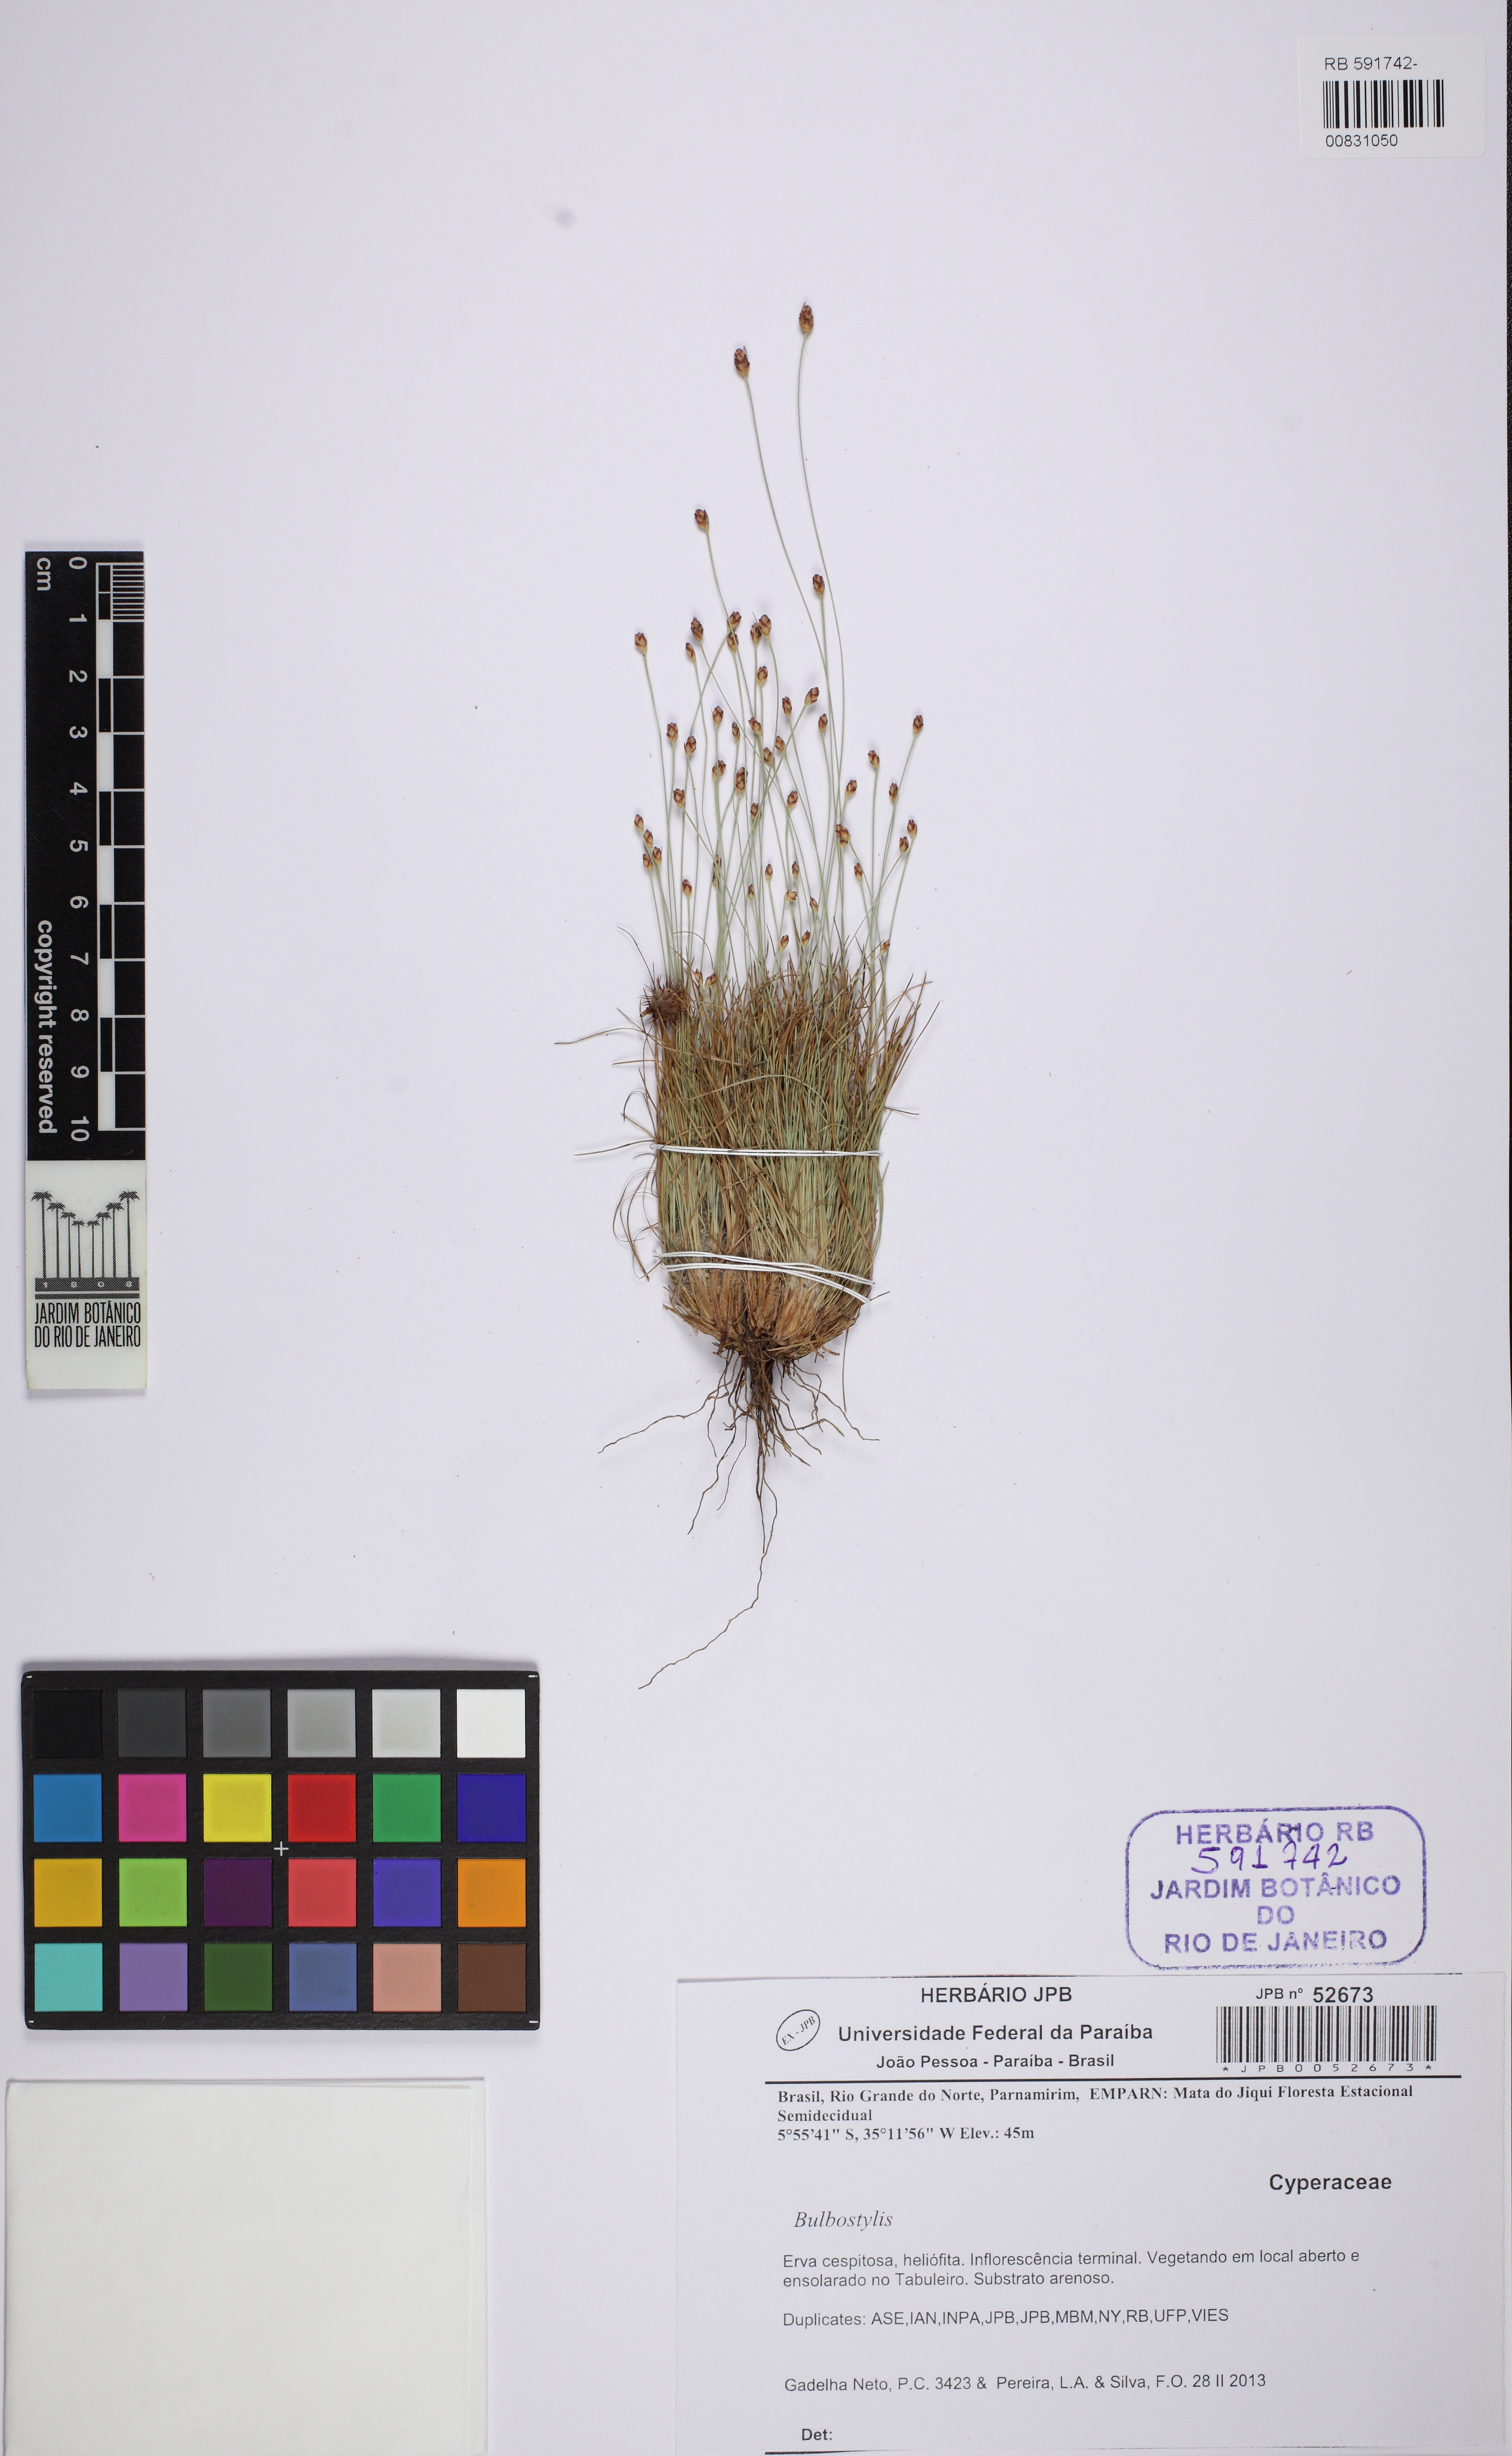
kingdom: Plantae
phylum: Tracheophyta
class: Liliopsida
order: Poales
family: Cyperaceae
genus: Bulbostylis
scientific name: Bulbostylis conifera
